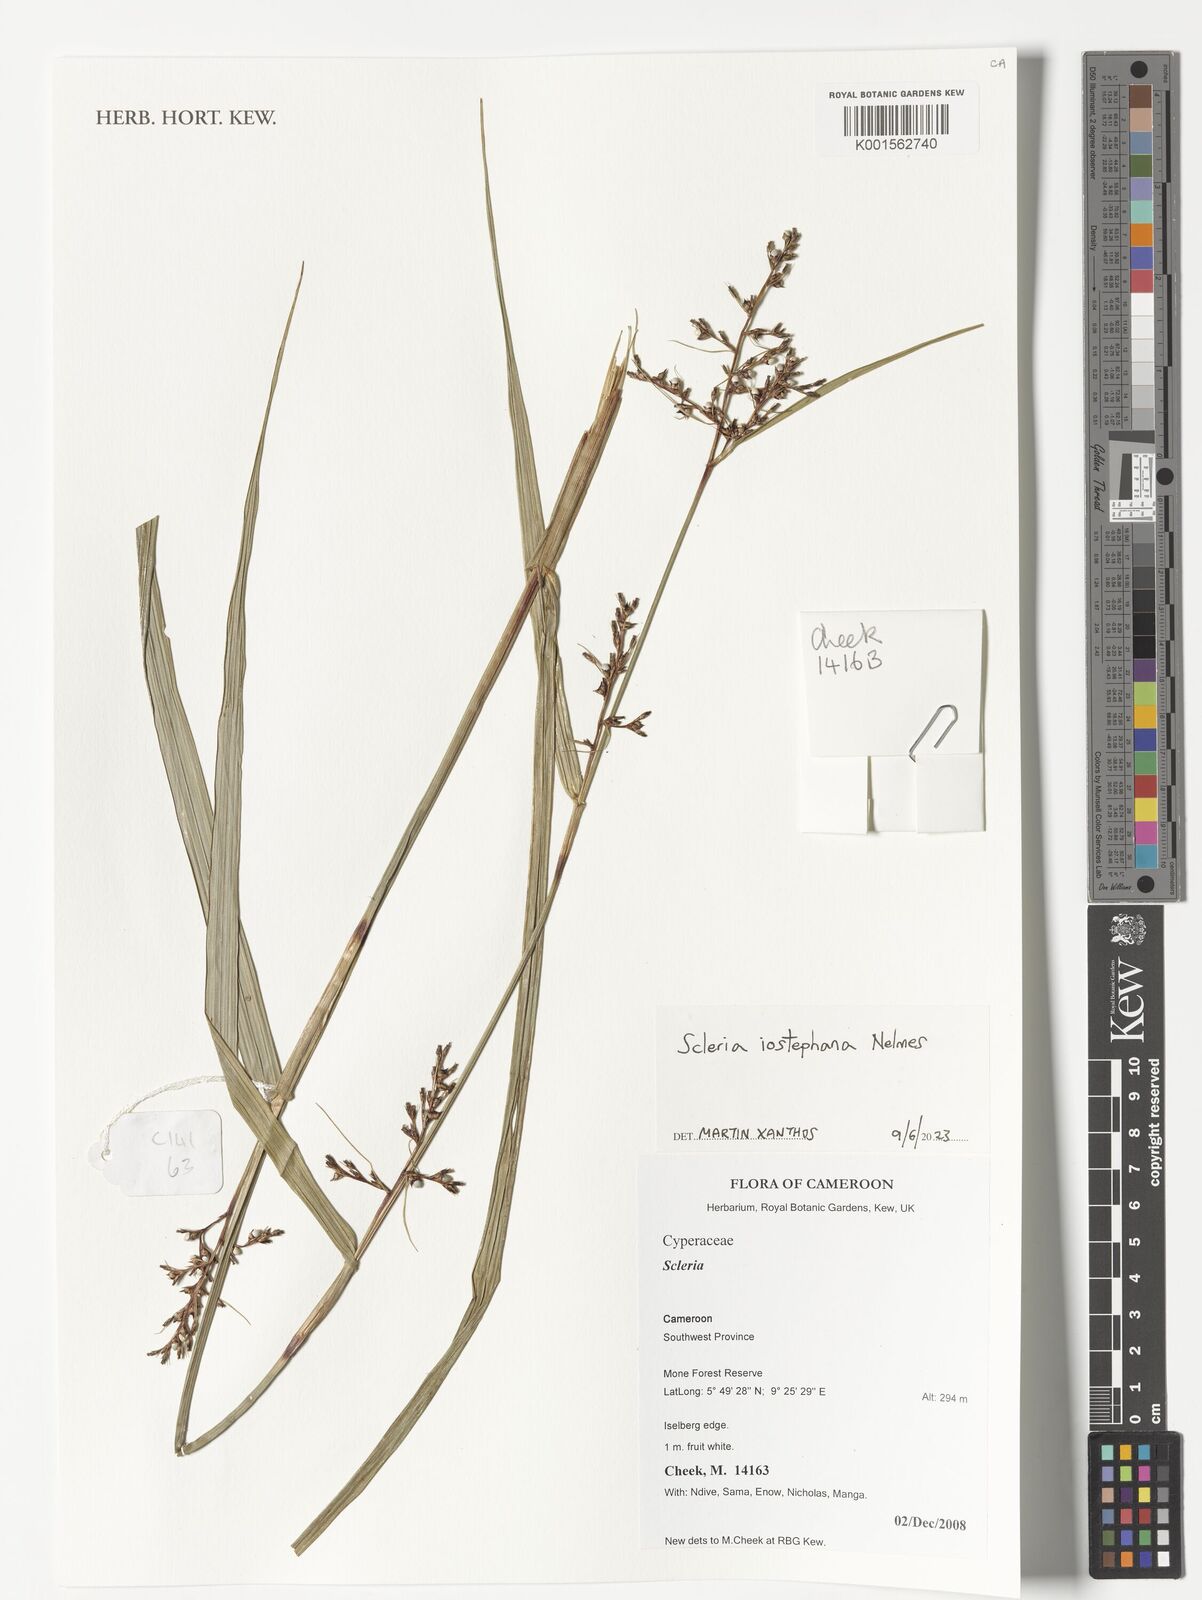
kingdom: Plantae
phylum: Tracheophyta
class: Liliopsida
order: Poales
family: Cyperaceae
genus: Scleria
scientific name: Scleria iostephana
